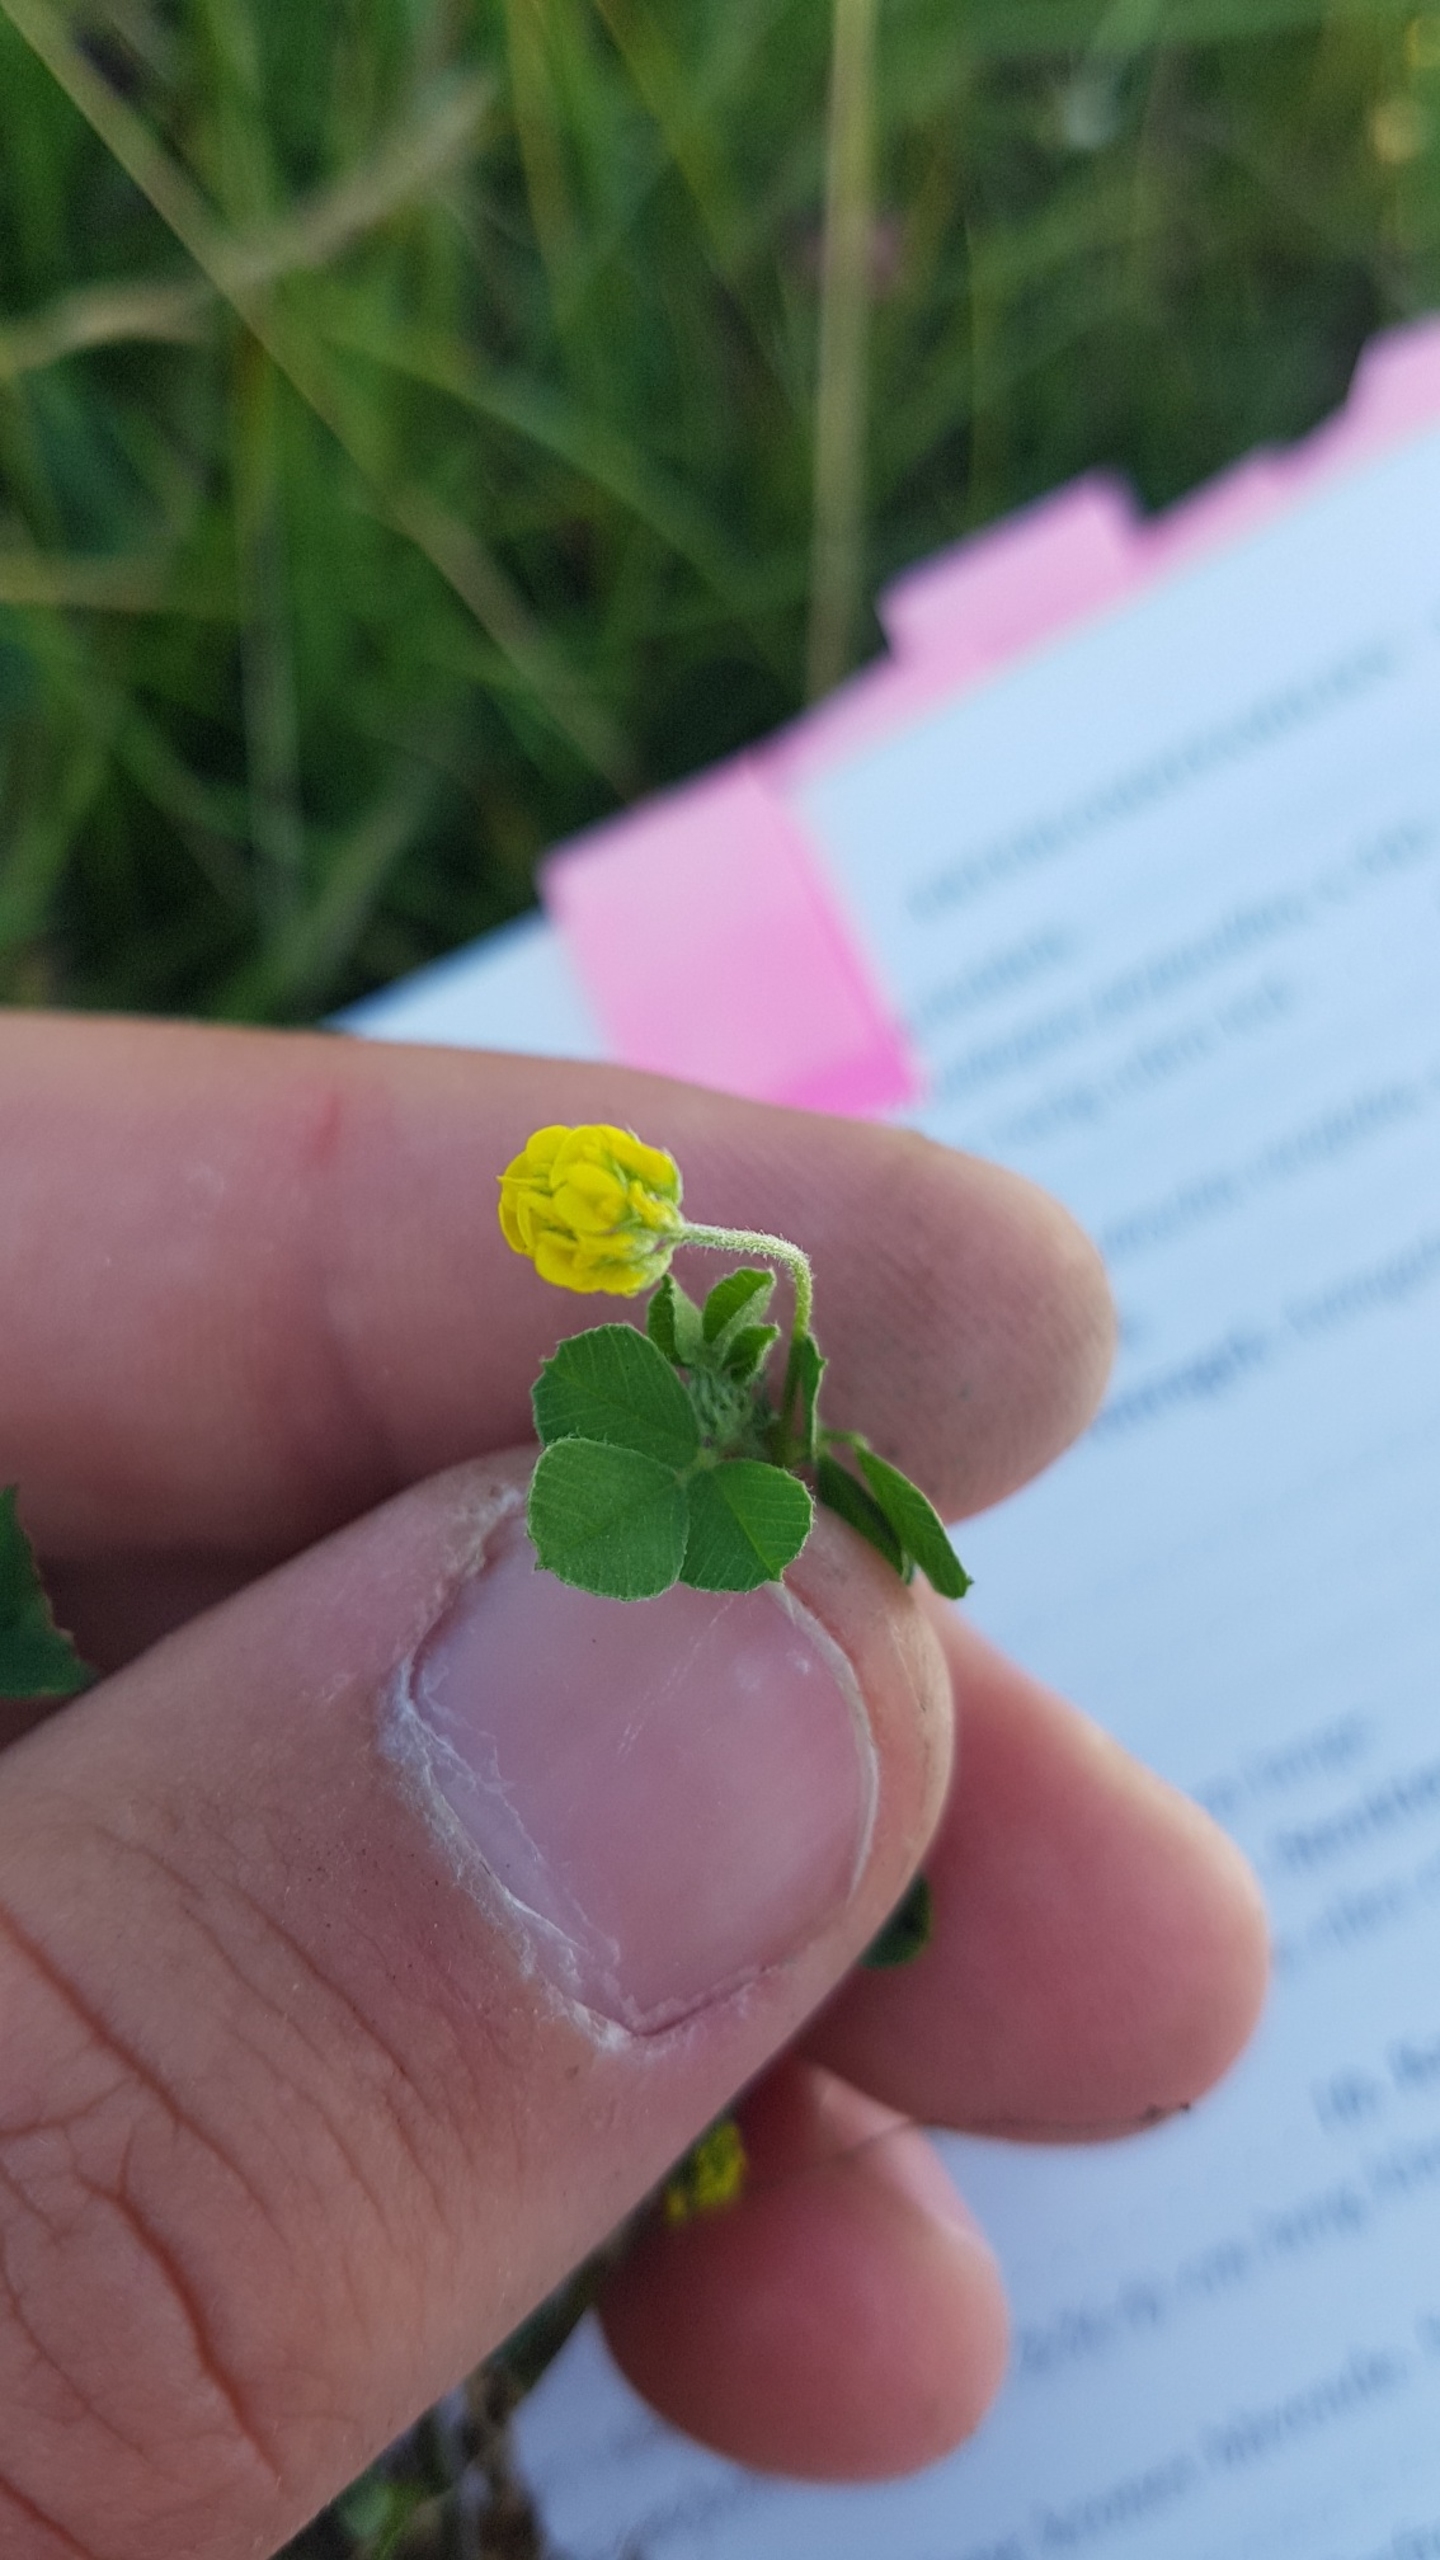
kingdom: Plantae
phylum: Tracheophyta
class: Magnoliopsida
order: Fabales
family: Fabaceae
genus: Medicago
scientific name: Medicago lupulina
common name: Humle-sneglebælg
